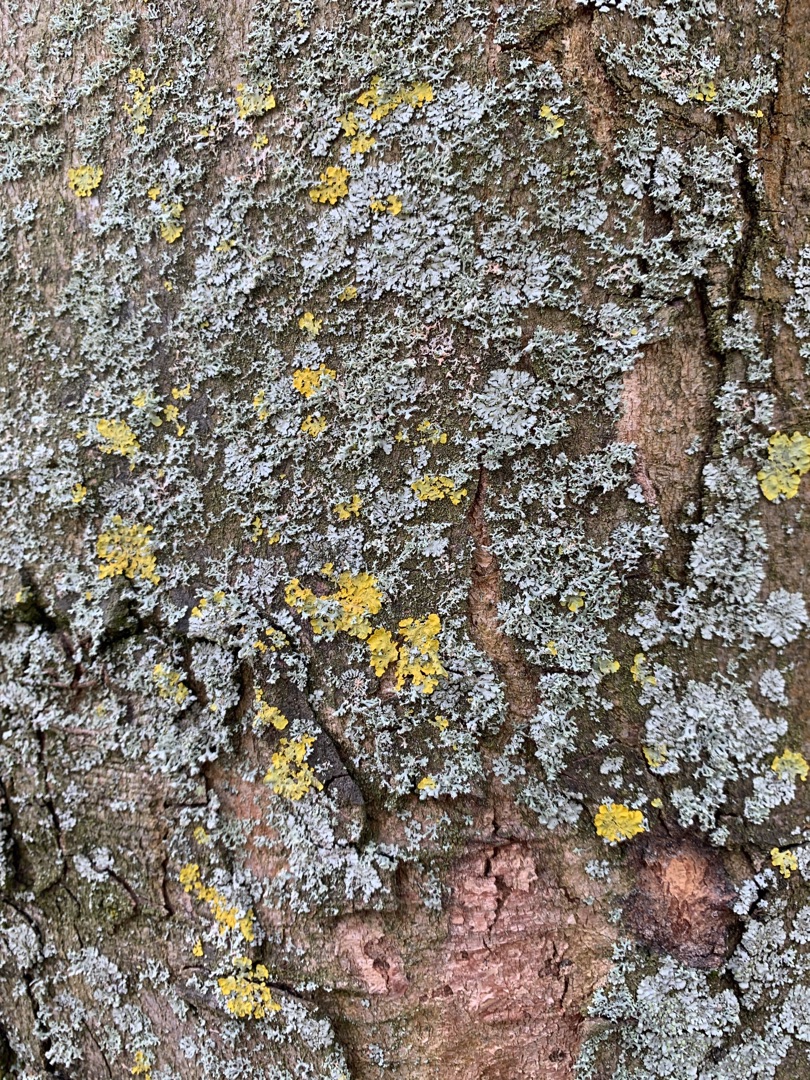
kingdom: Fungi
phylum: Ascomycota
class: Lecanoromycetes
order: Teloschistales
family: Teloschistaceae
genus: Xanthoria
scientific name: Xanthoria parietina
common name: Almindelig væggelav
